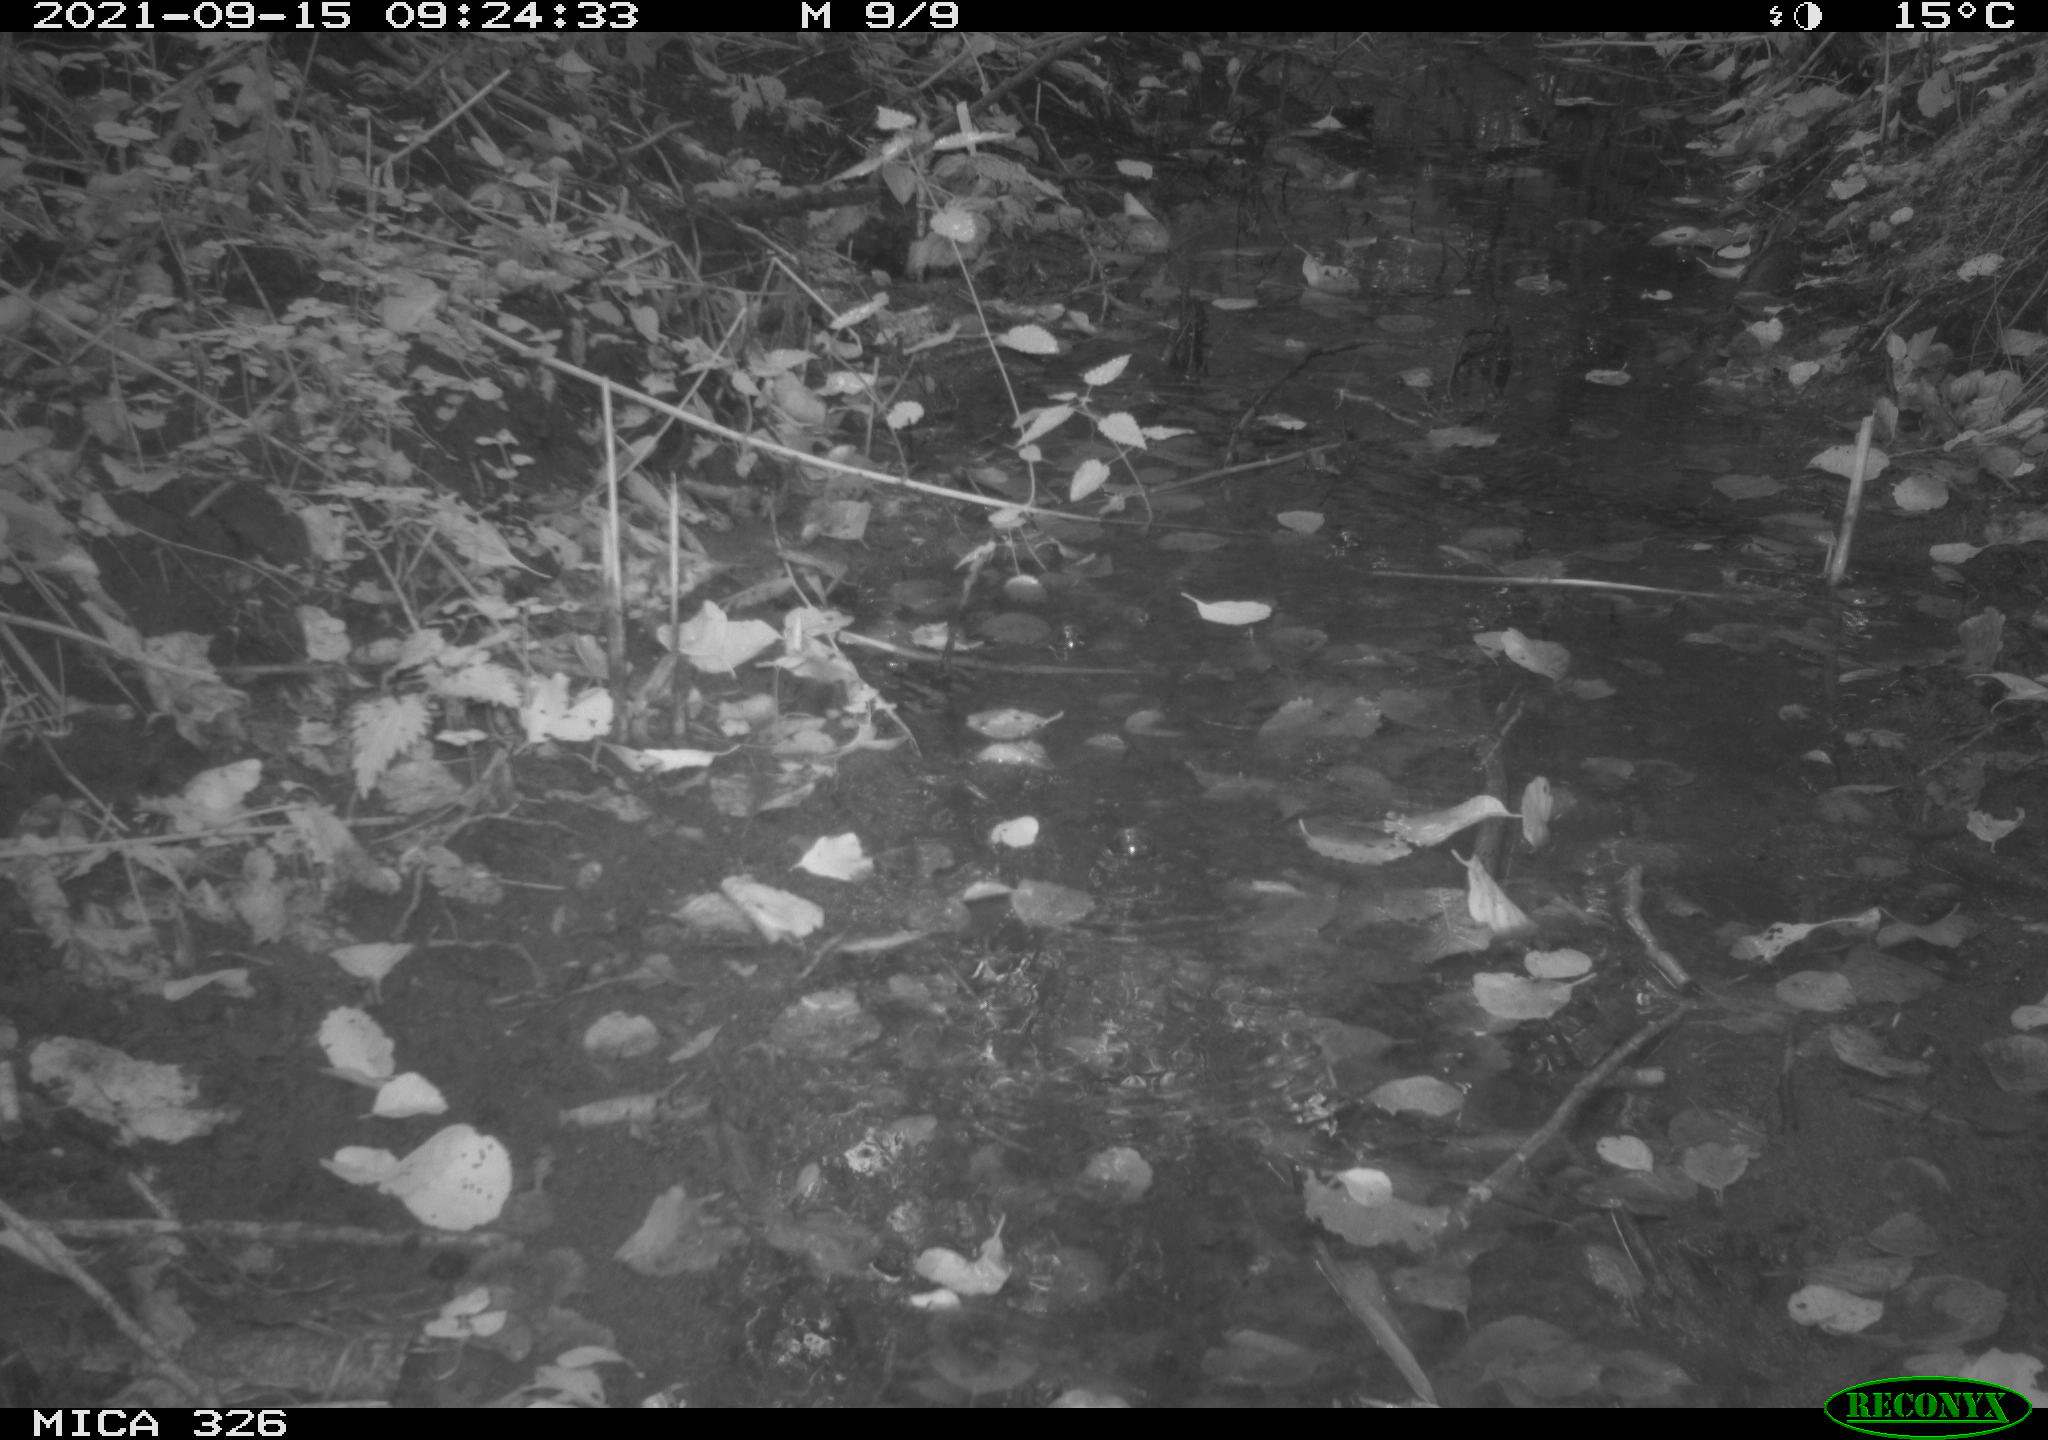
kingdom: Animalia
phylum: Chordata
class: Mammalia
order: Carnivora
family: Mustelidae
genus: Mustela
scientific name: Mustela putorius
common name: European polecat
